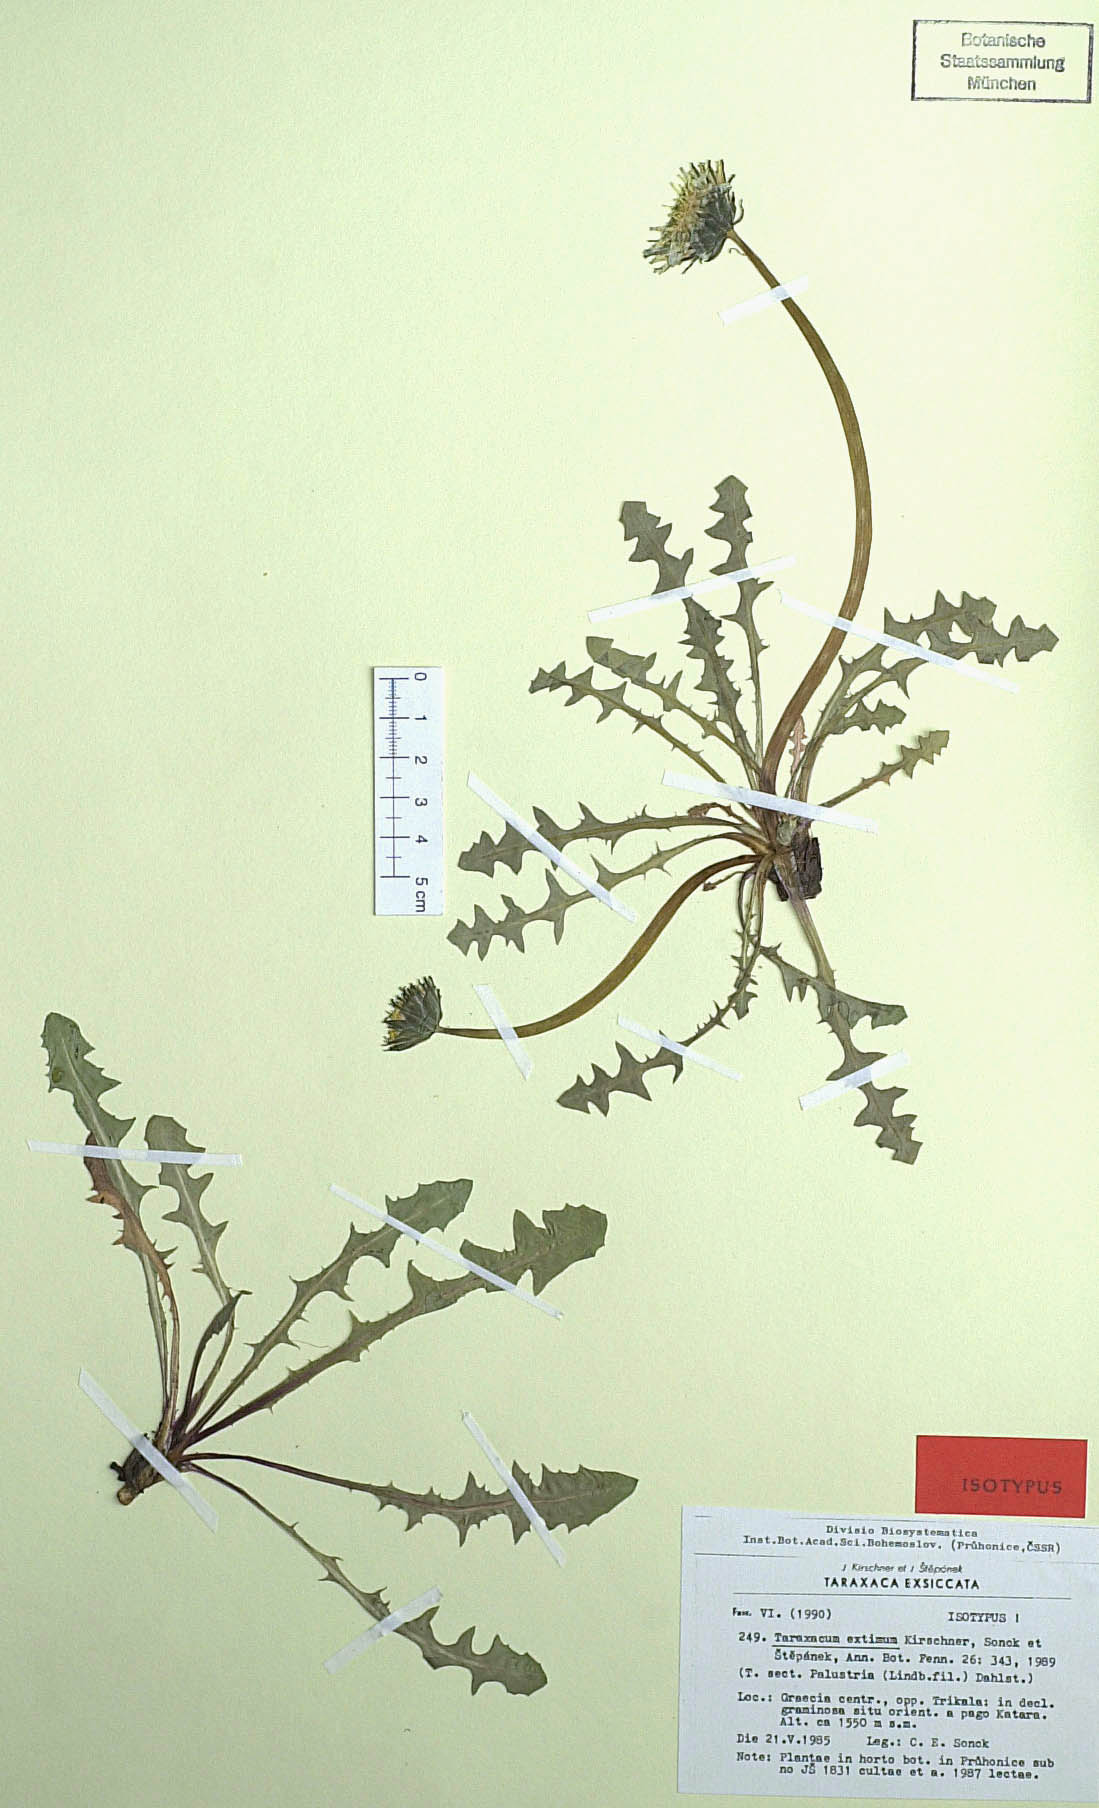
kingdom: Plantae
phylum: Tracheophyta
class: Magnoliopsida
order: Asterales
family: Asteraceae
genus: Taraxacum
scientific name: Taraxacum extimum
